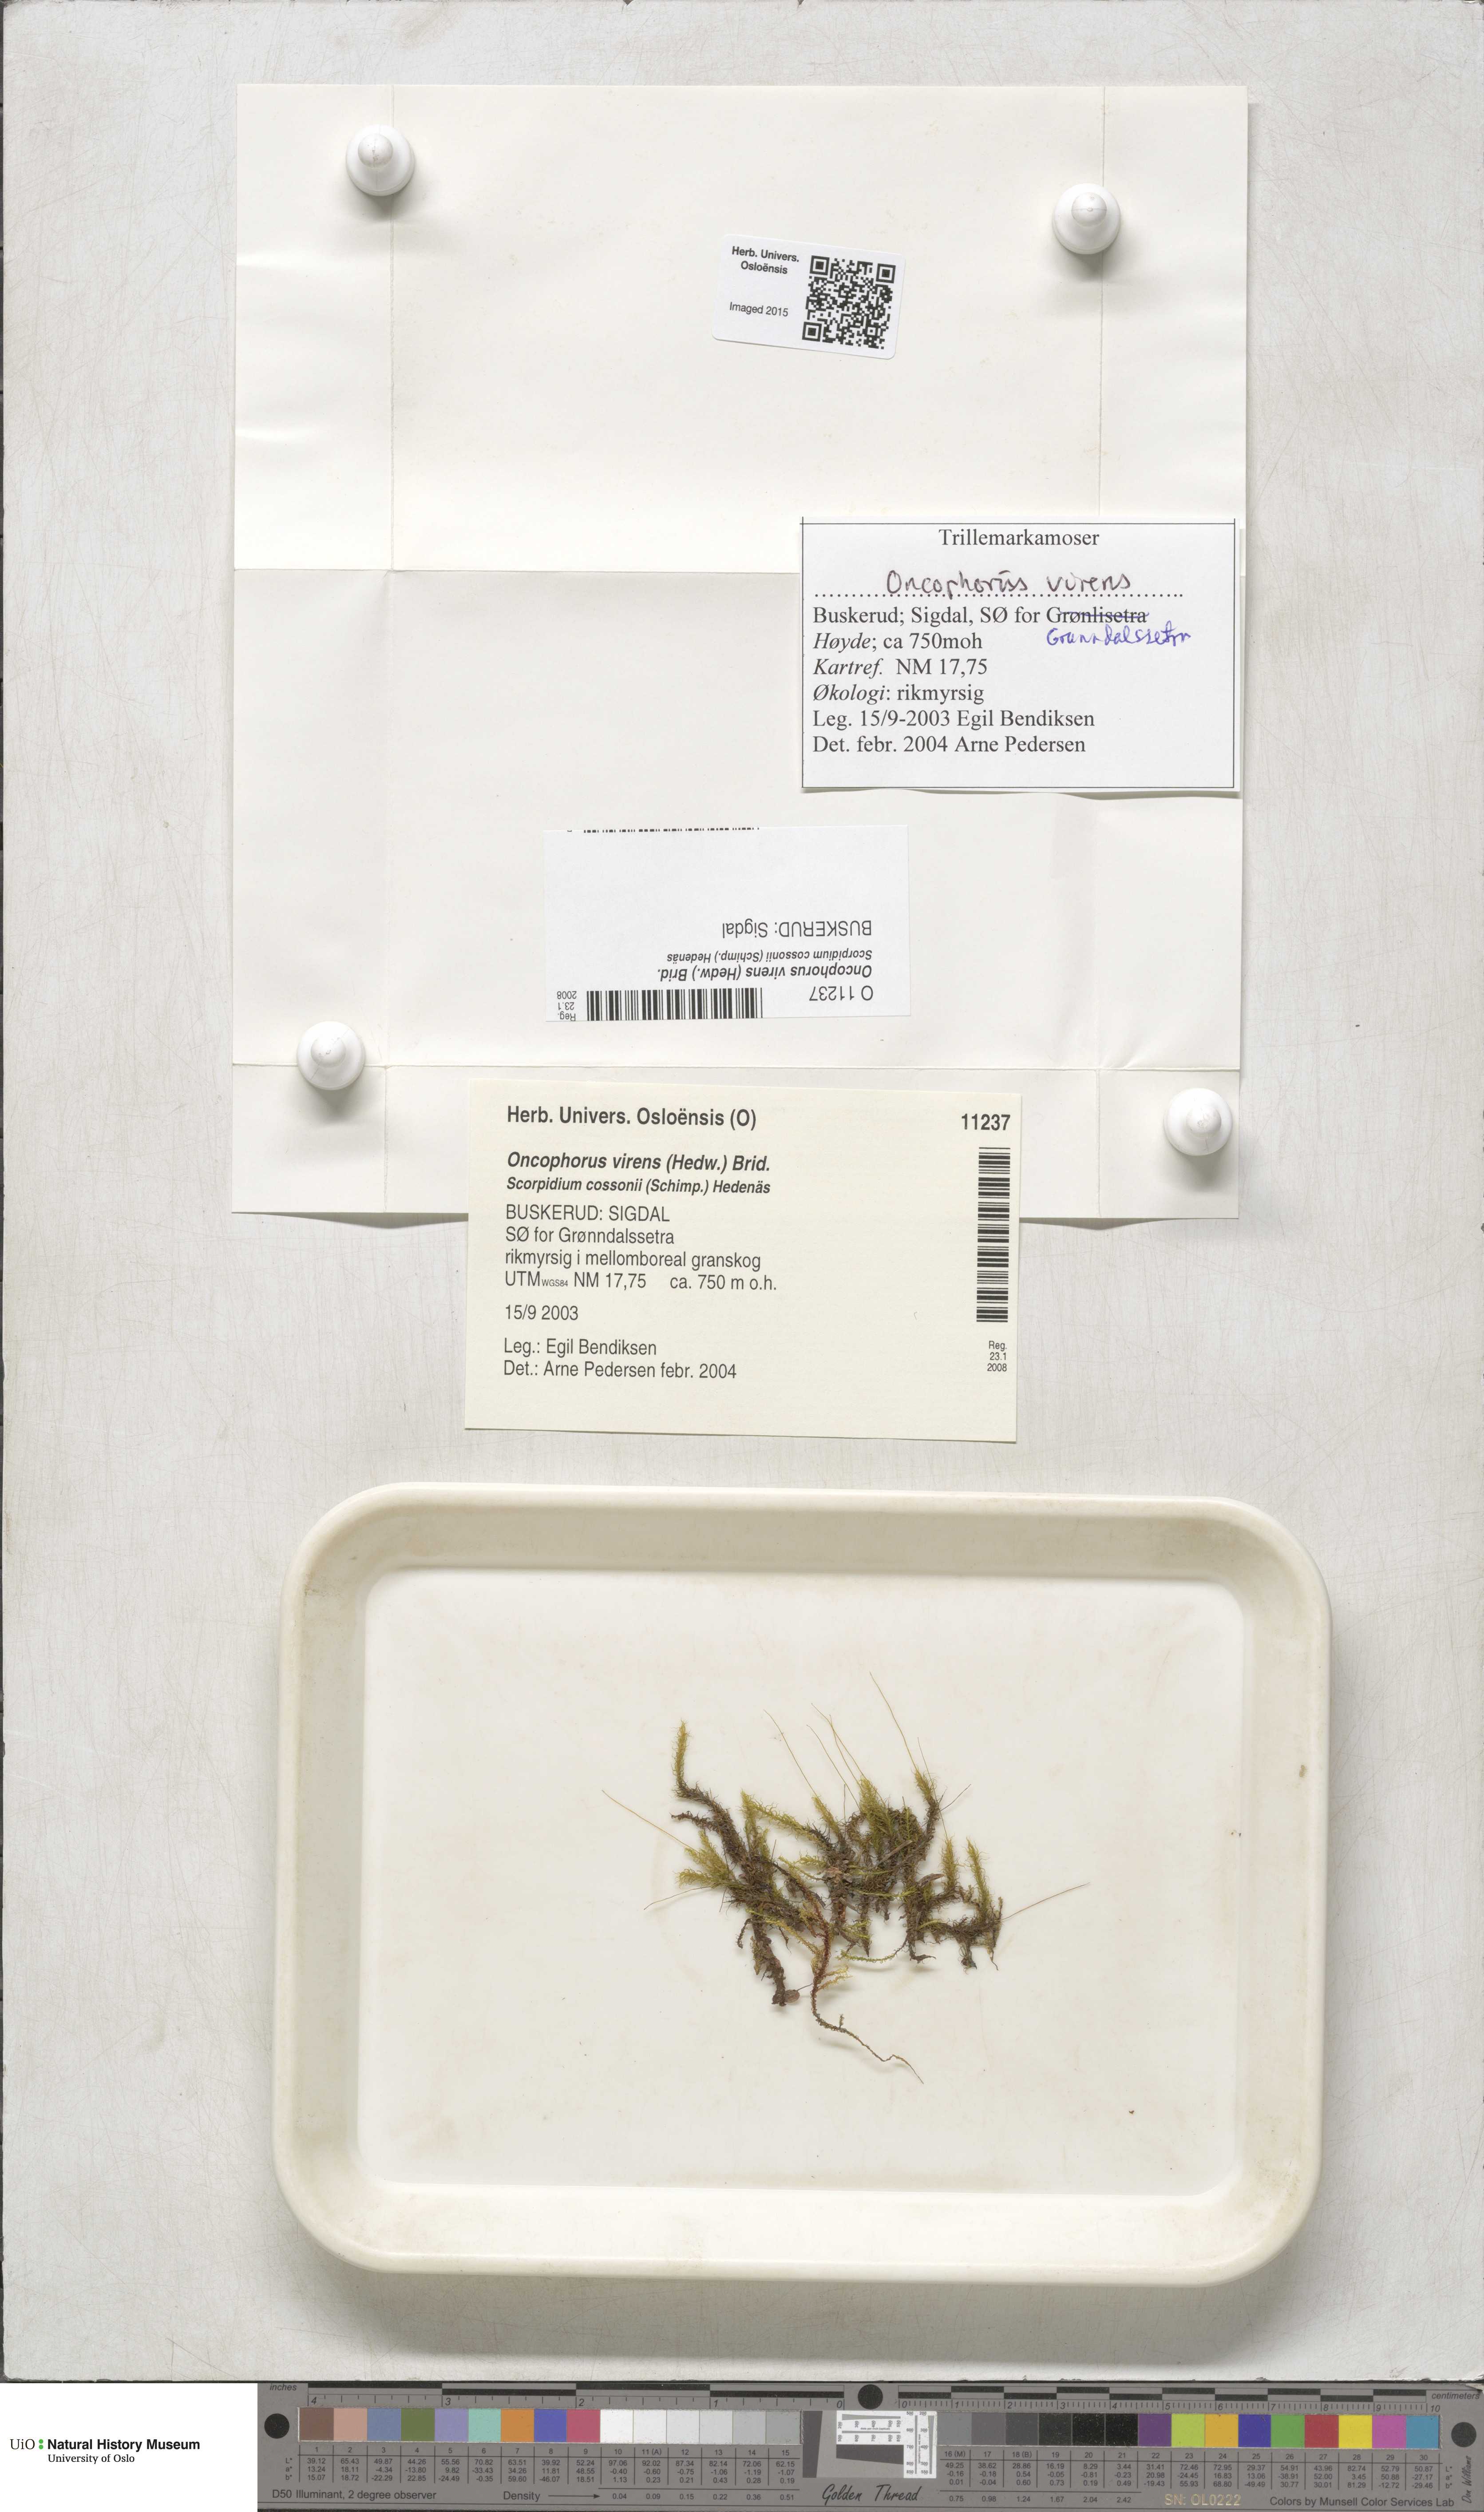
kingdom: Plantae
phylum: Bryophyta
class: Bryopsida
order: Dicranales
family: Rhabdoweisiaceae
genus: Oncophorus
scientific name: Oncophorus virens
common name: Green spur moss
